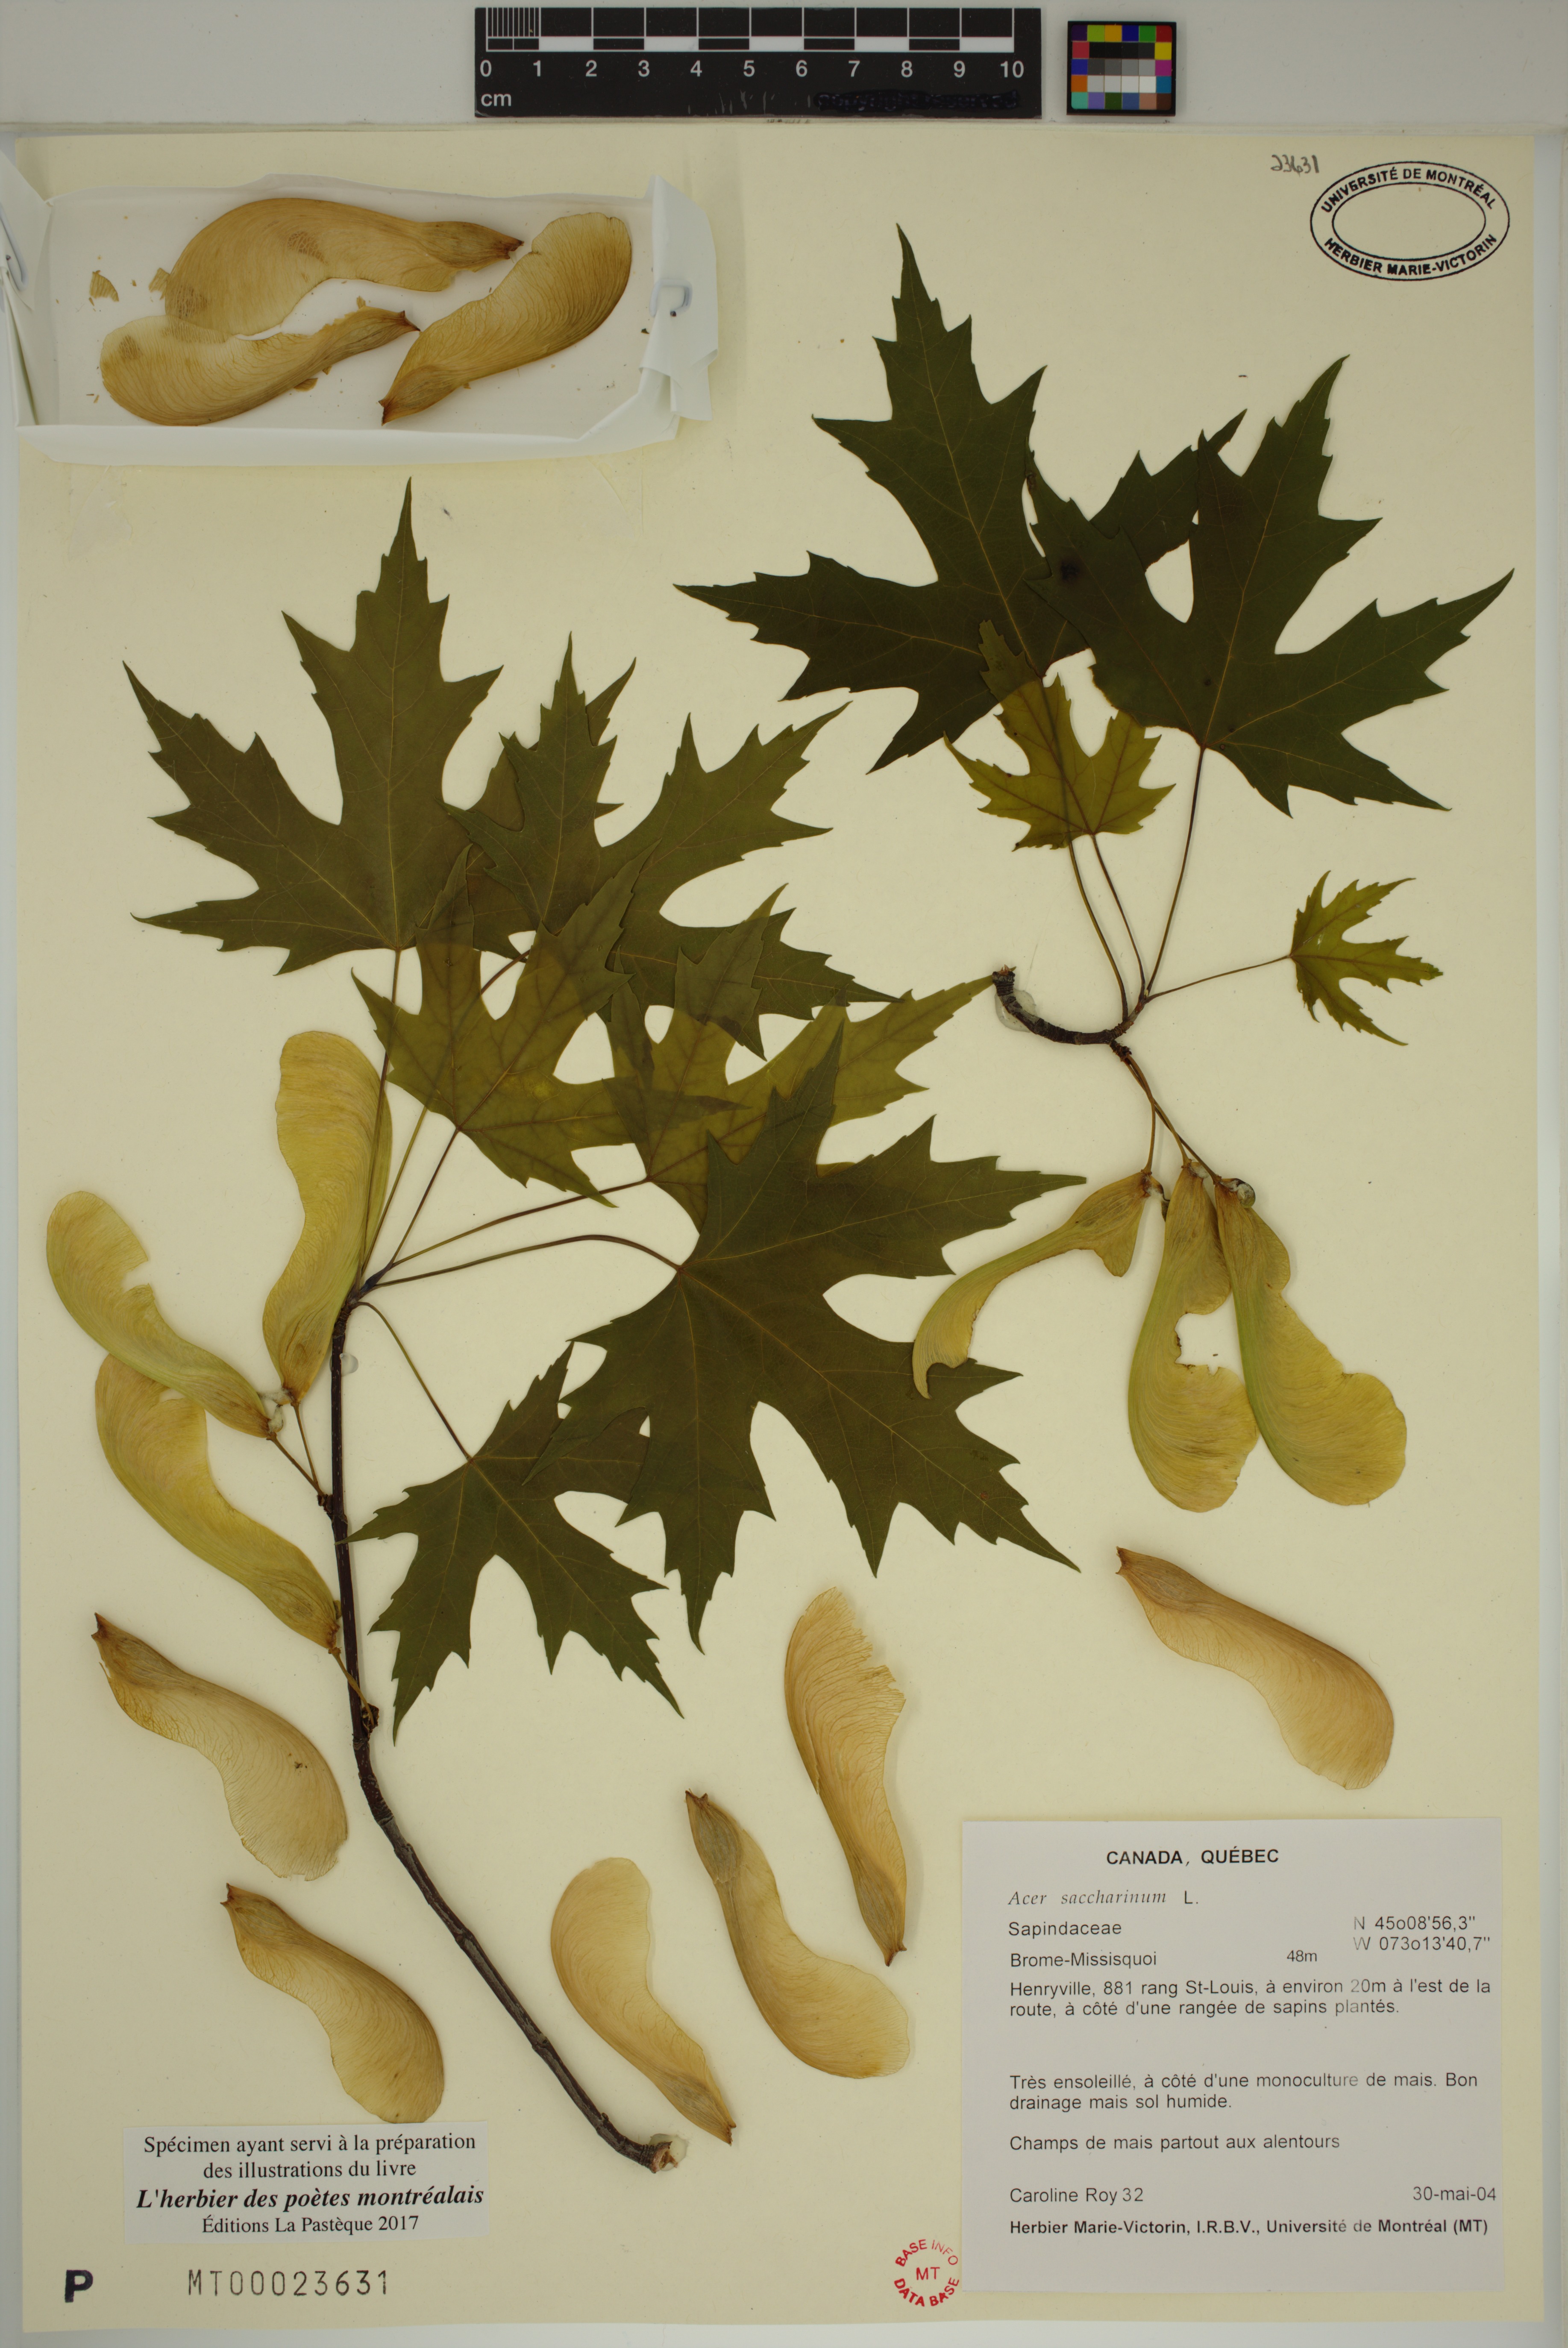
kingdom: Plantae
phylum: Tracheophyta
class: Magnoliopsida
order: Sapindales
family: Sapindaceae
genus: Acer
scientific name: Acer saccharinum
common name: Silver maple
